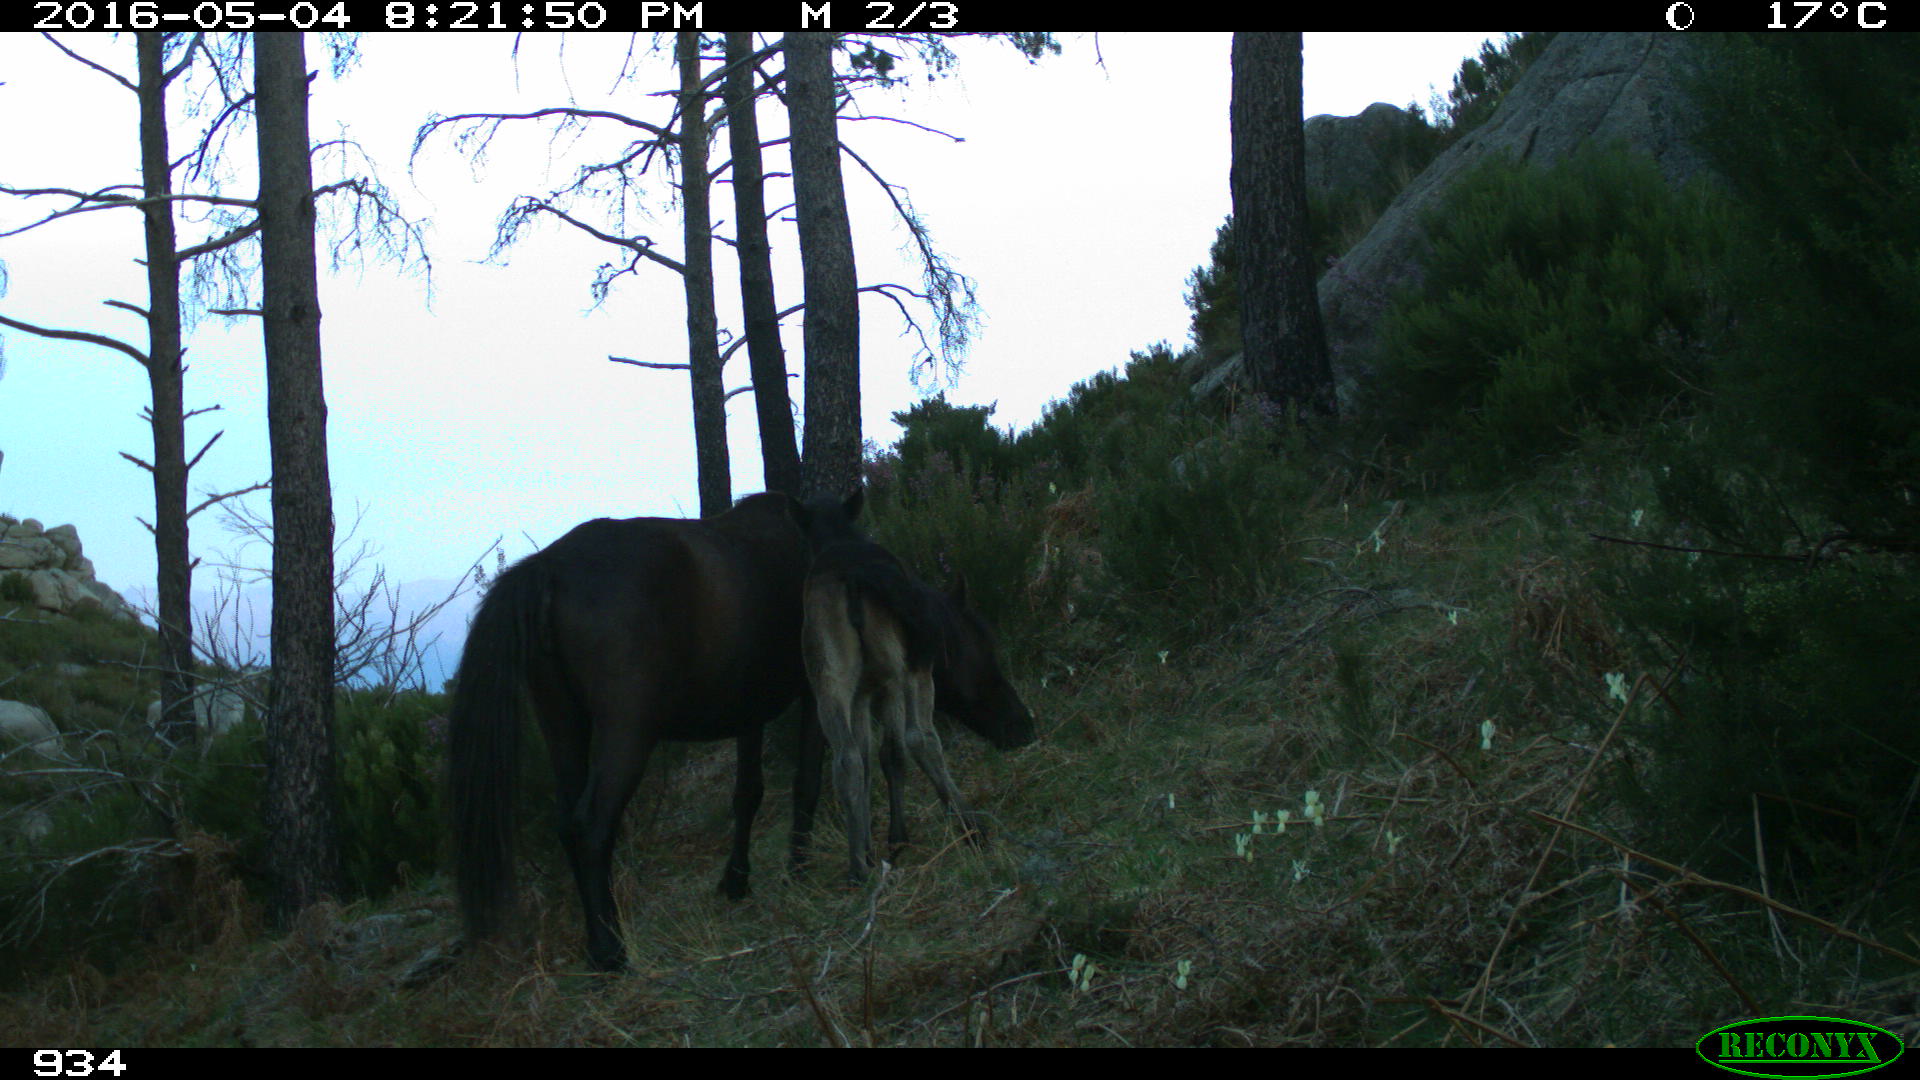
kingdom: Animalia
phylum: Chordata
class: Mammalia
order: Perissodactyla
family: Equidae
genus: Equus
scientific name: Equus caballus
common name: Horse
